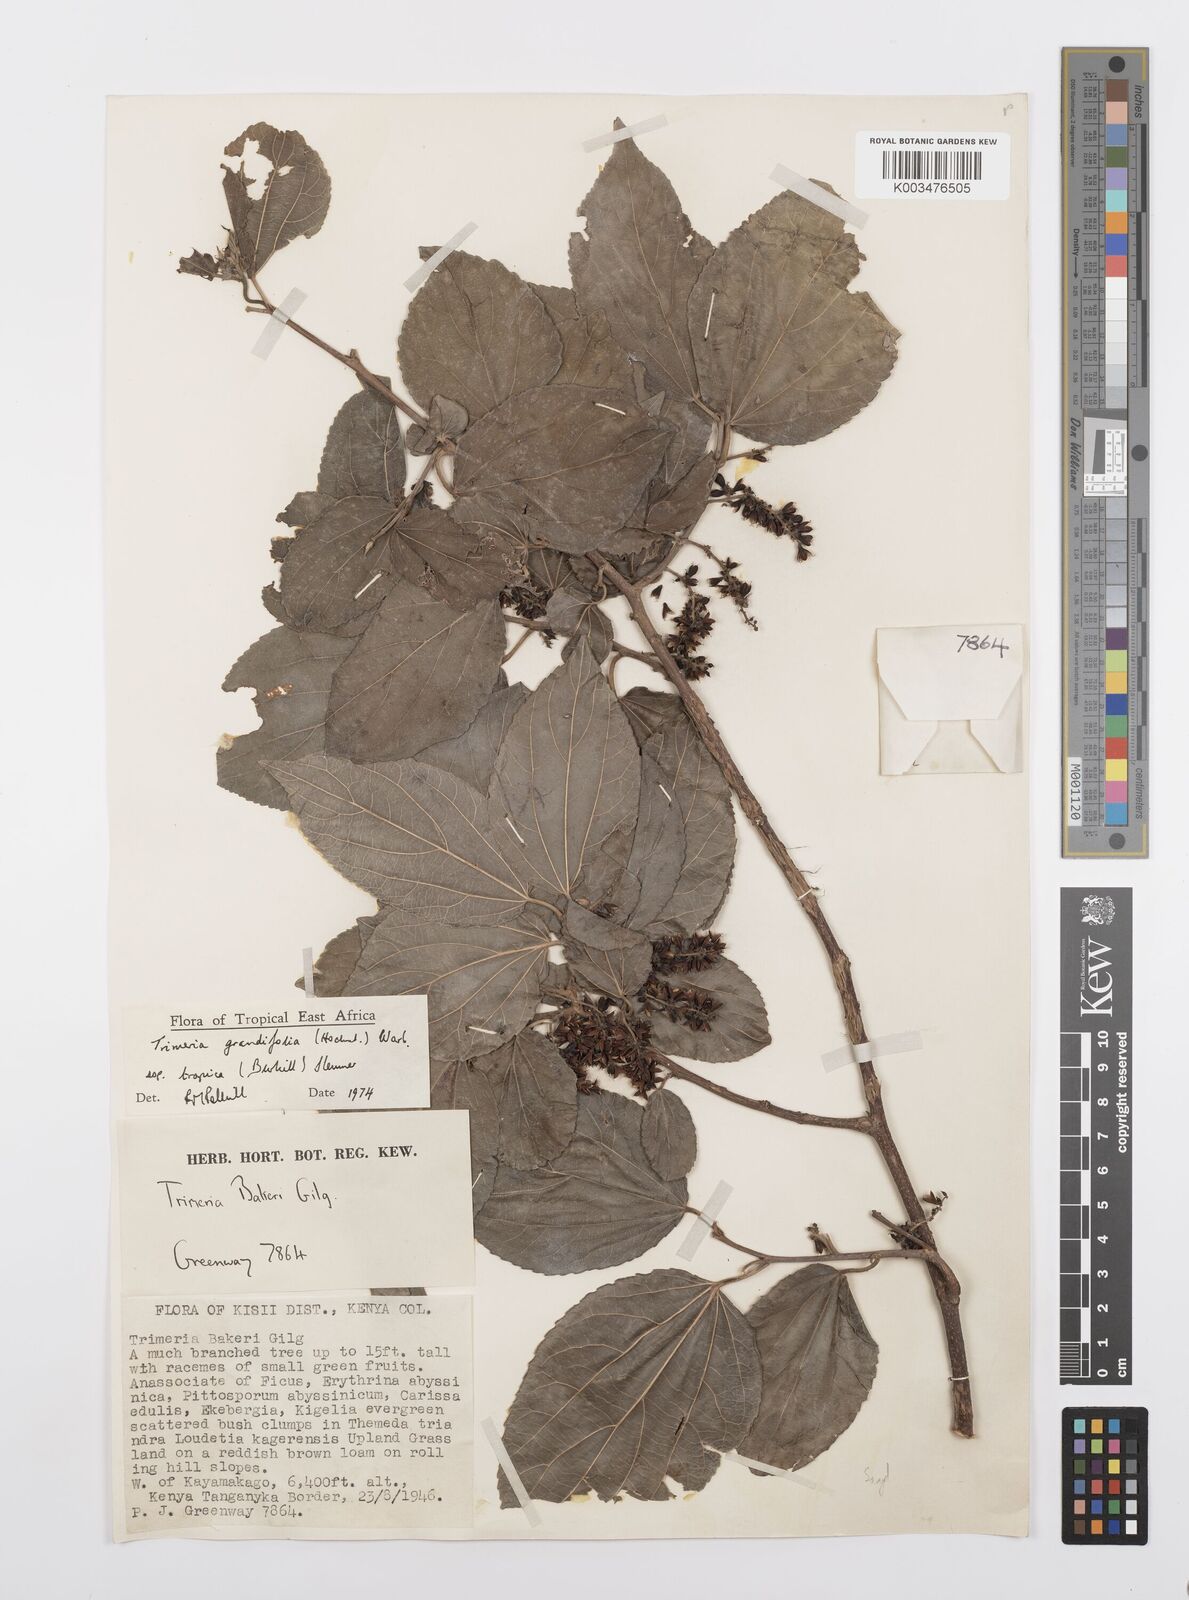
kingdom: Plantae
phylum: Tracheophyta
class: Magnoliopsida
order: Malpighiales
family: Salicaceae
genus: Trimeria
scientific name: Trimeria grandifolia
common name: Wild mulberry
